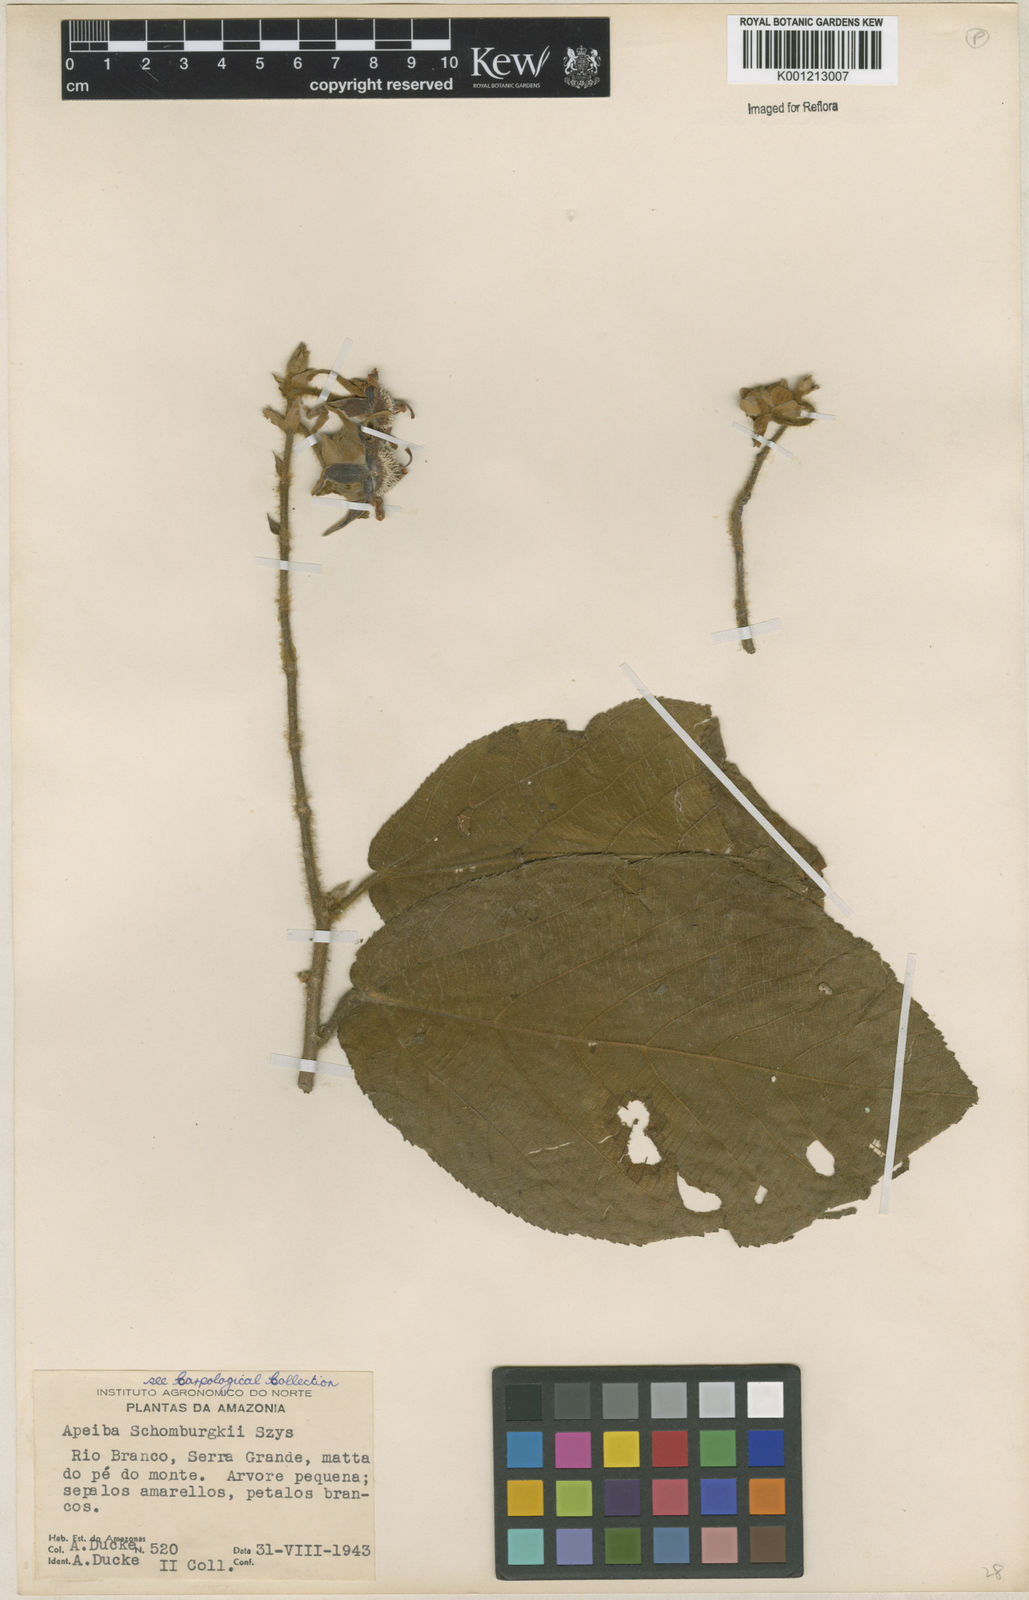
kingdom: Plantae
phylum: Tracheophyta
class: Magnoliopsida
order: Malvales
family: Malvaceae
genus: Apeiba
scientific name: Apeiba schomburgkii
